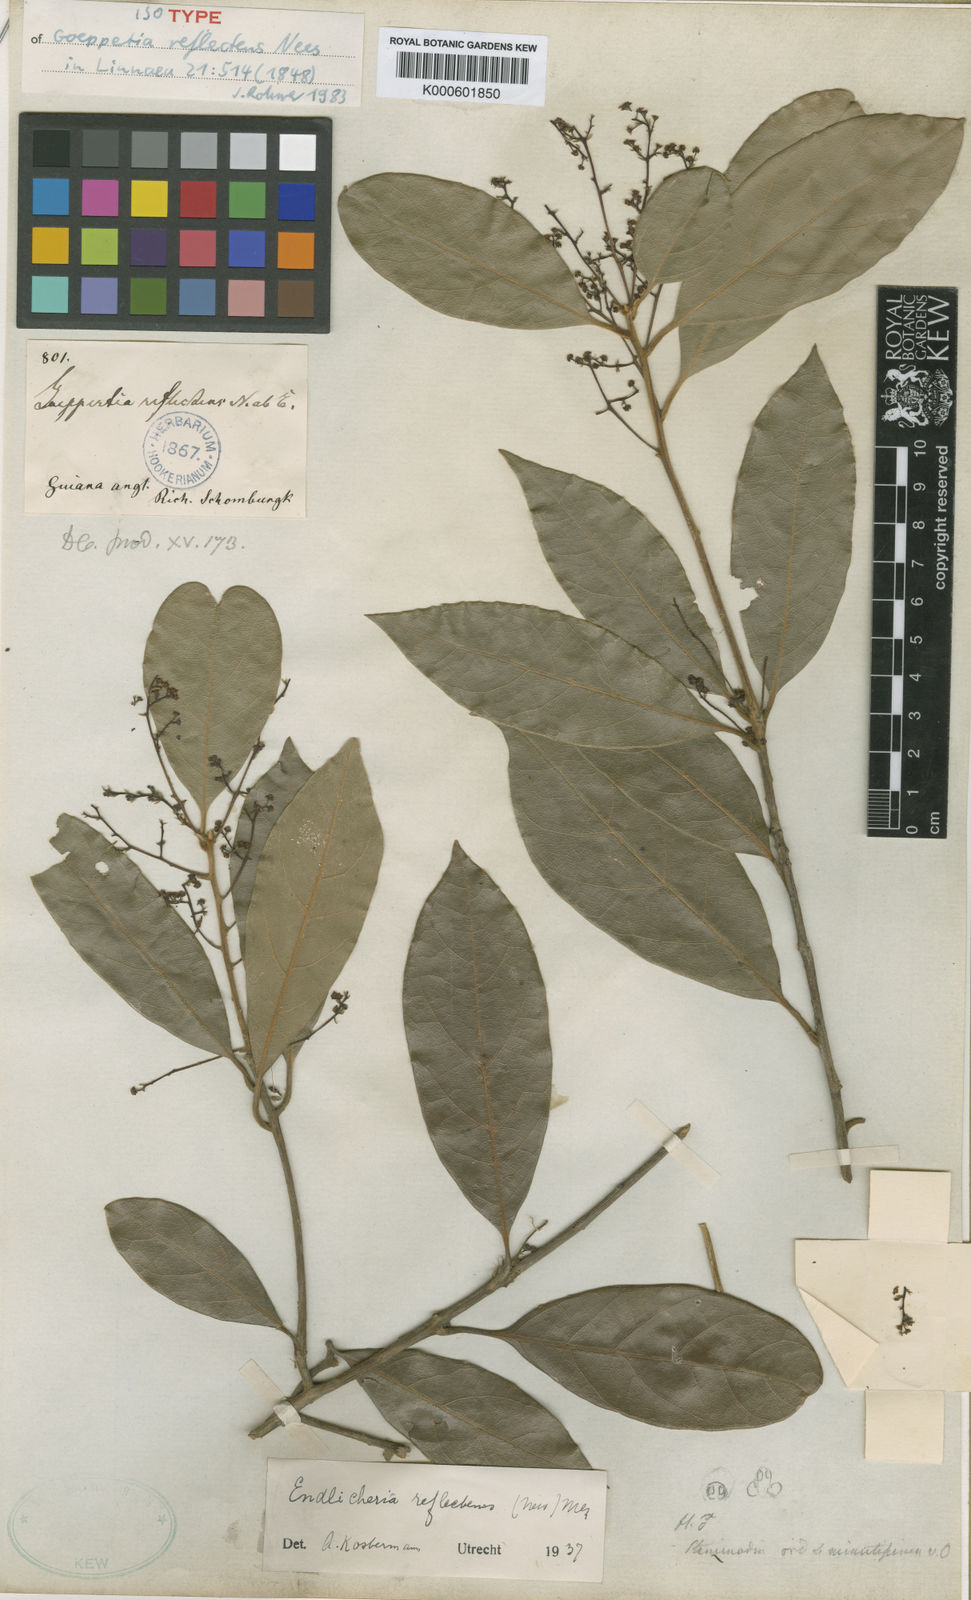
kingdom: Plantae
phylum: Tracheophyta
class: Magnoliopsida
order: Laurales
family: Lauraceae
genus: Endlicheria
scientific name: Endlicheria reflectens
